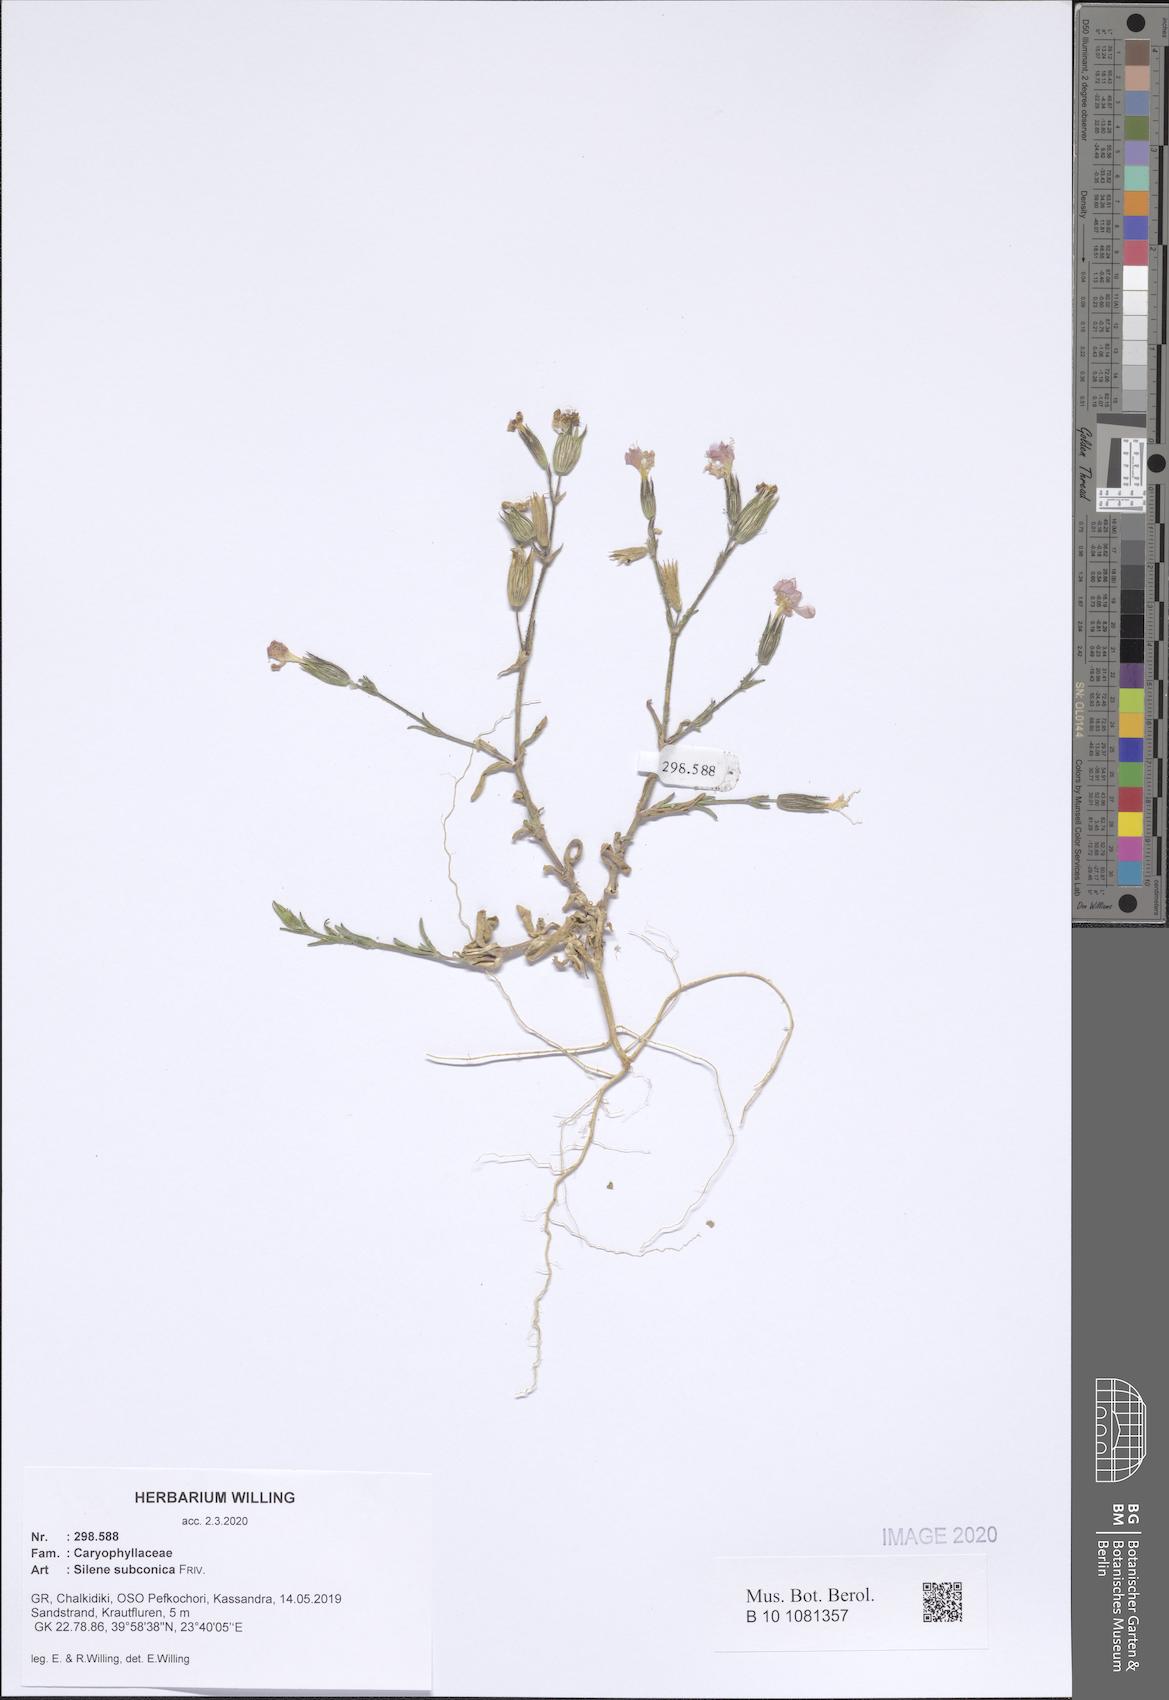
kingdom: Plantae
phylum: Tracheophyta
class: Magnoliopsida
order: Caryophyllales
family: Caryophyllaceae
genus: Silene
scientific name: Silene subconica
